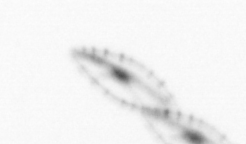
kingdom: Chromista
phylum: Myzozoa
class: Dinophyceae
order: Noctilucales
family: Noctilucaceae
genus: Noctiluca
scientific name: Noctiluca scintillans
